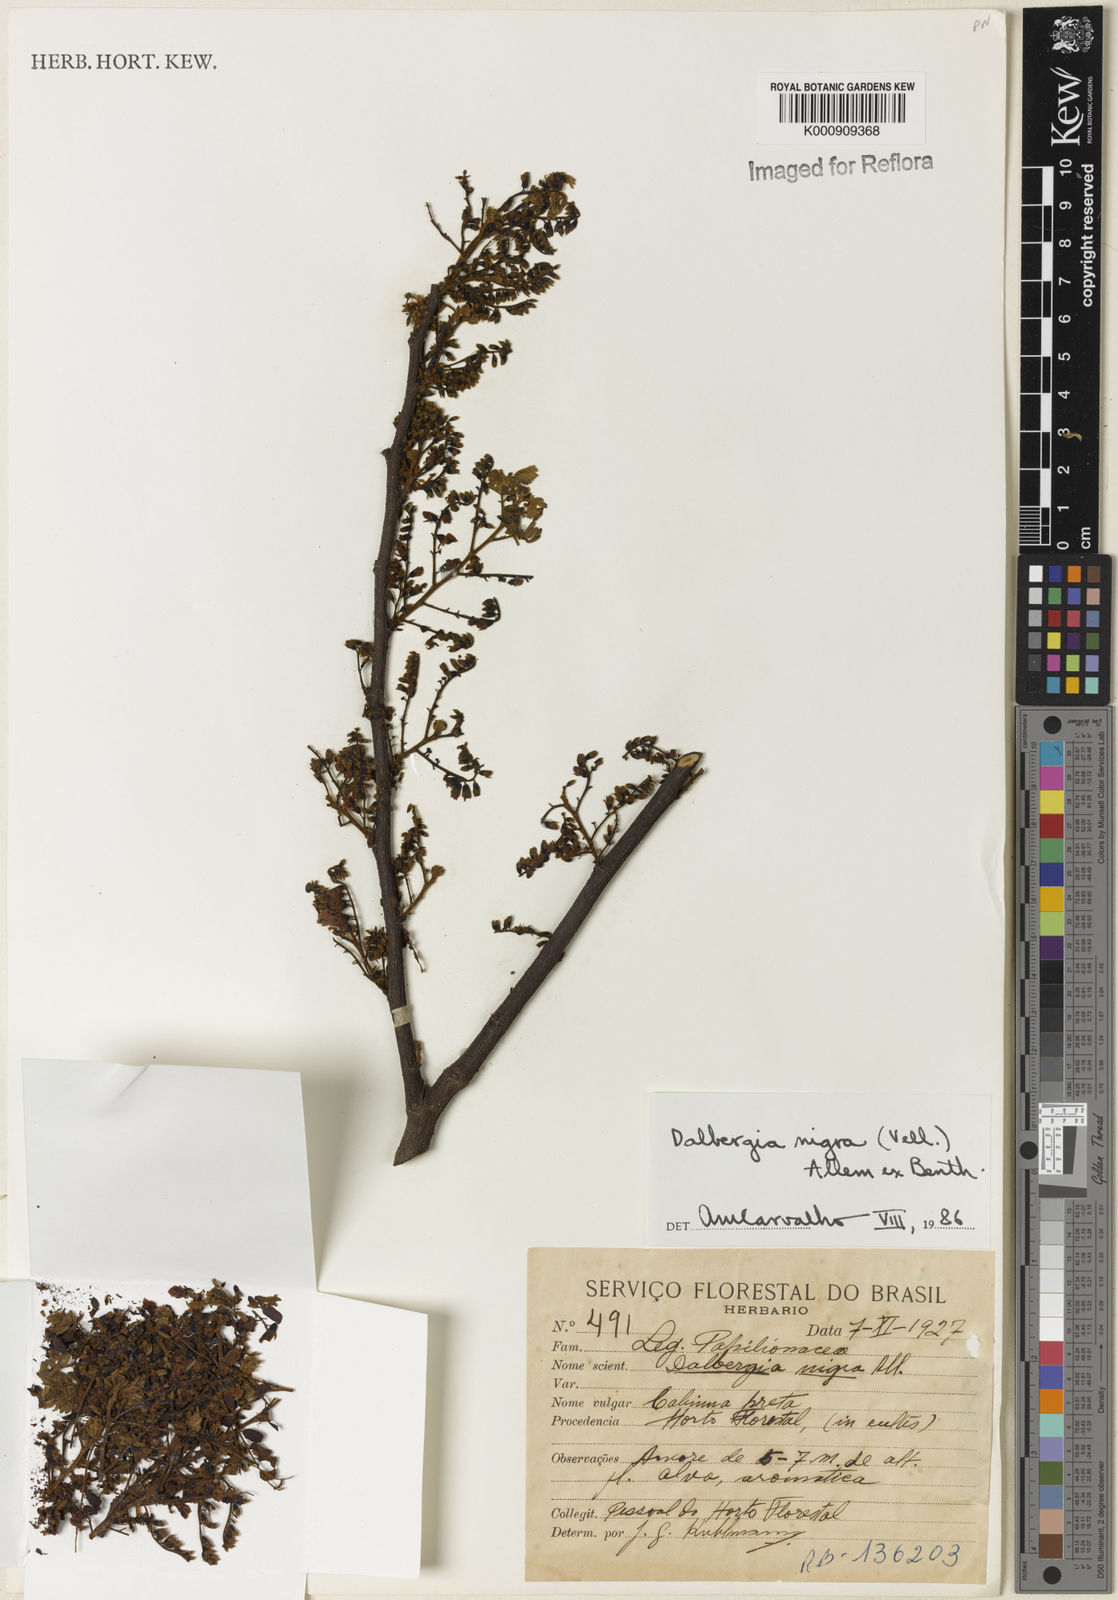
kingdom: Plantae
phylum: Tracheophyta
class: Magnoliopsida
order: Fabales
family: Fabaceae
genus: Dalbergia
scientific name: Dalbergia
